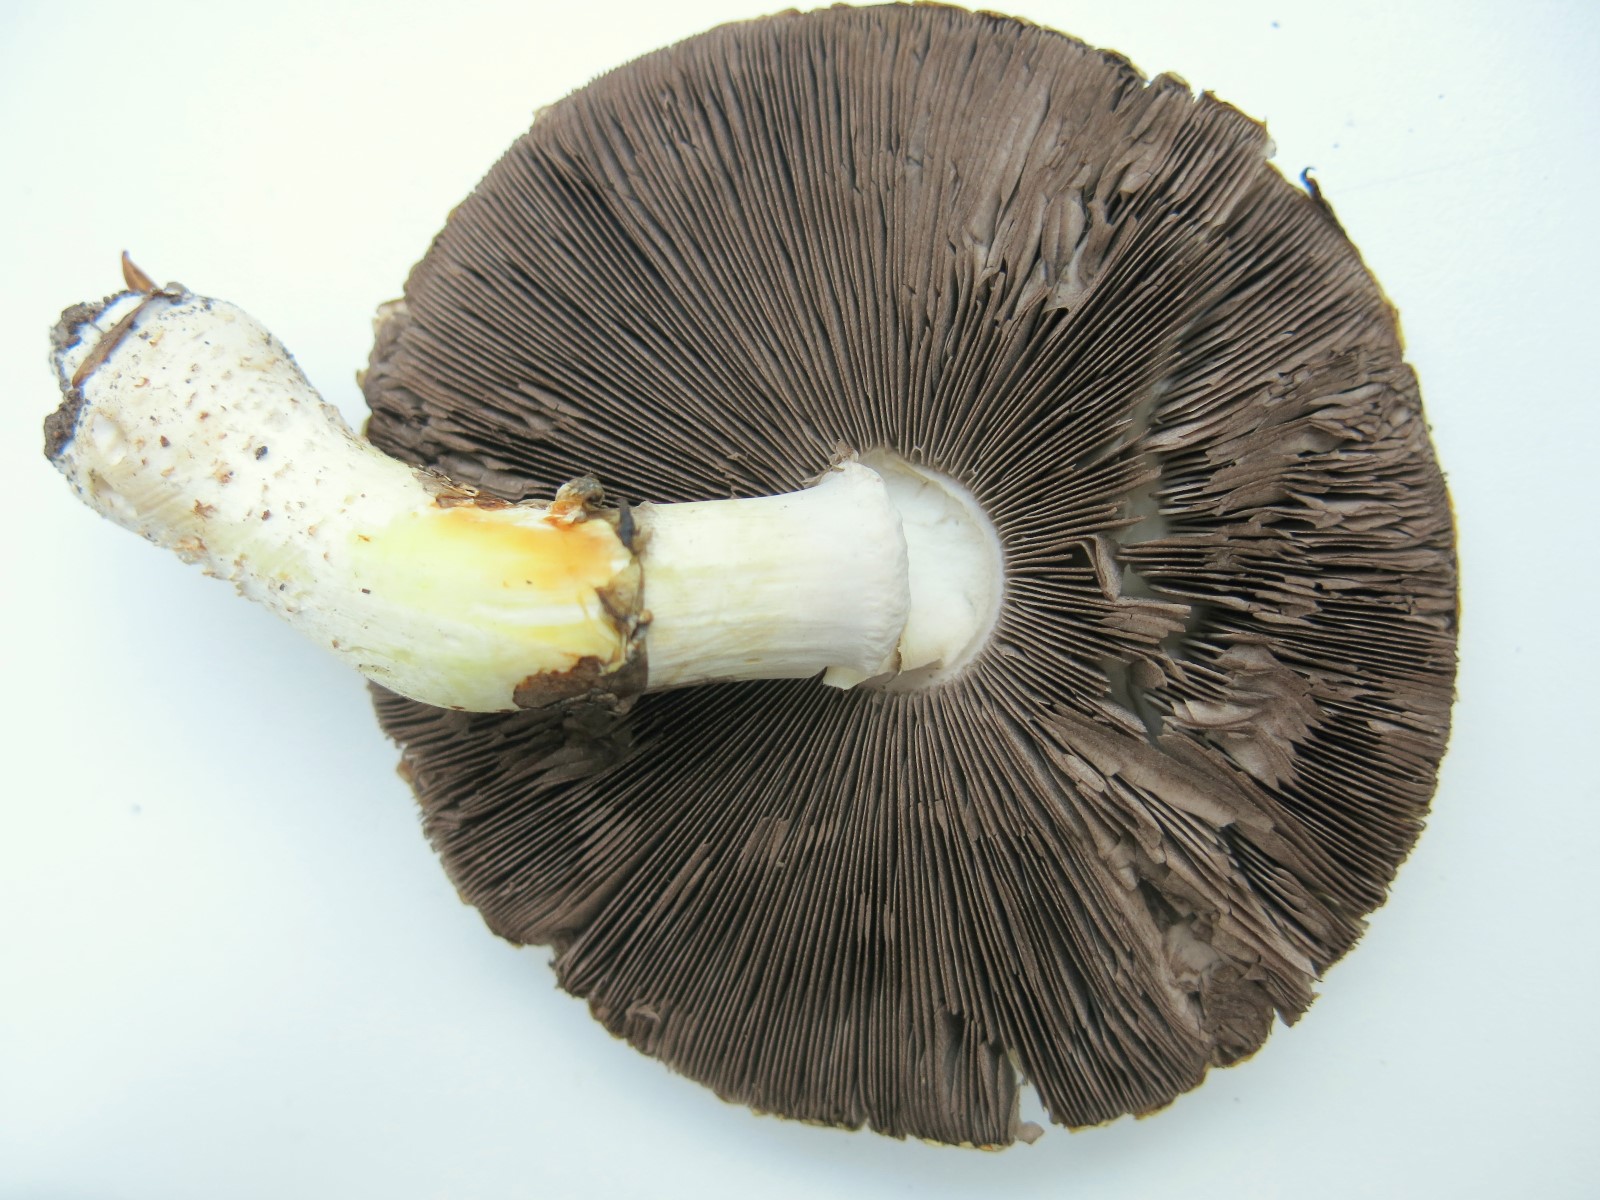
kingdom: Fungi
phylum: Basidiomycota
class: Agaricomycetes
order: Agaricales
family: Agaricaceae
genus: Agaricus
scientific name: Agaricus xanthodermus
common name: karbol-champignon
